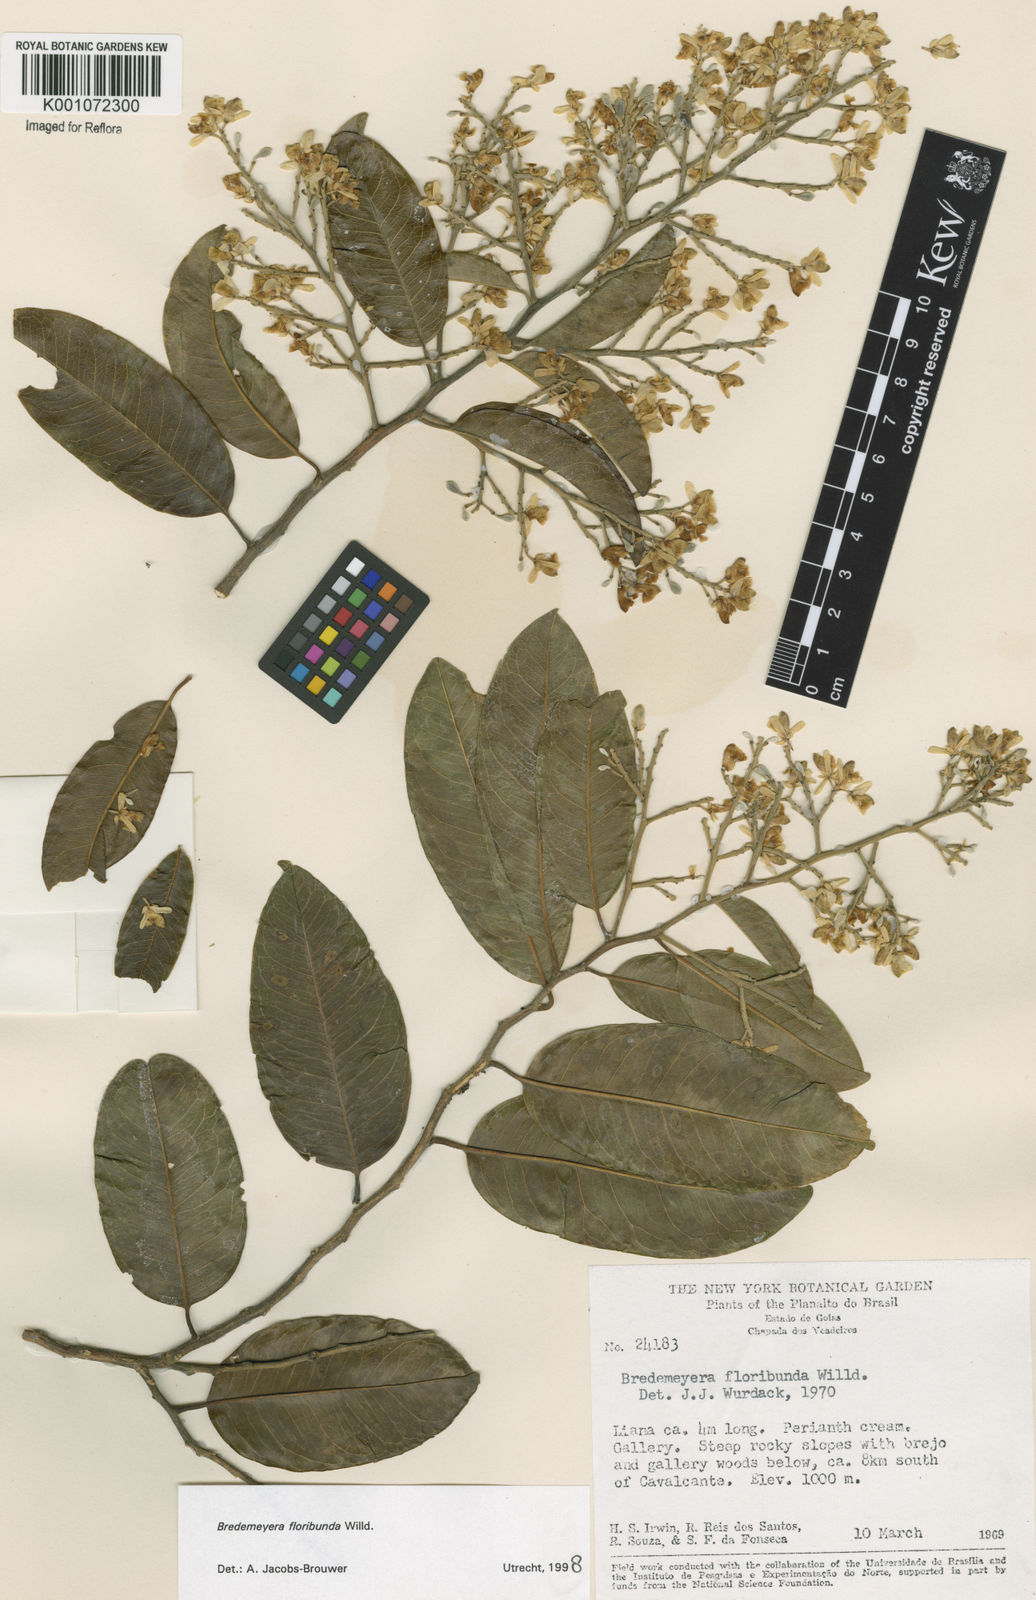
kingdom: Plantae
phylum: Tracheophyta
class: Magnoliopsida
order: Fabales
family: Polygalaceae
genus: Bredemeyera
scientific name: Bredemeyera floribunda
